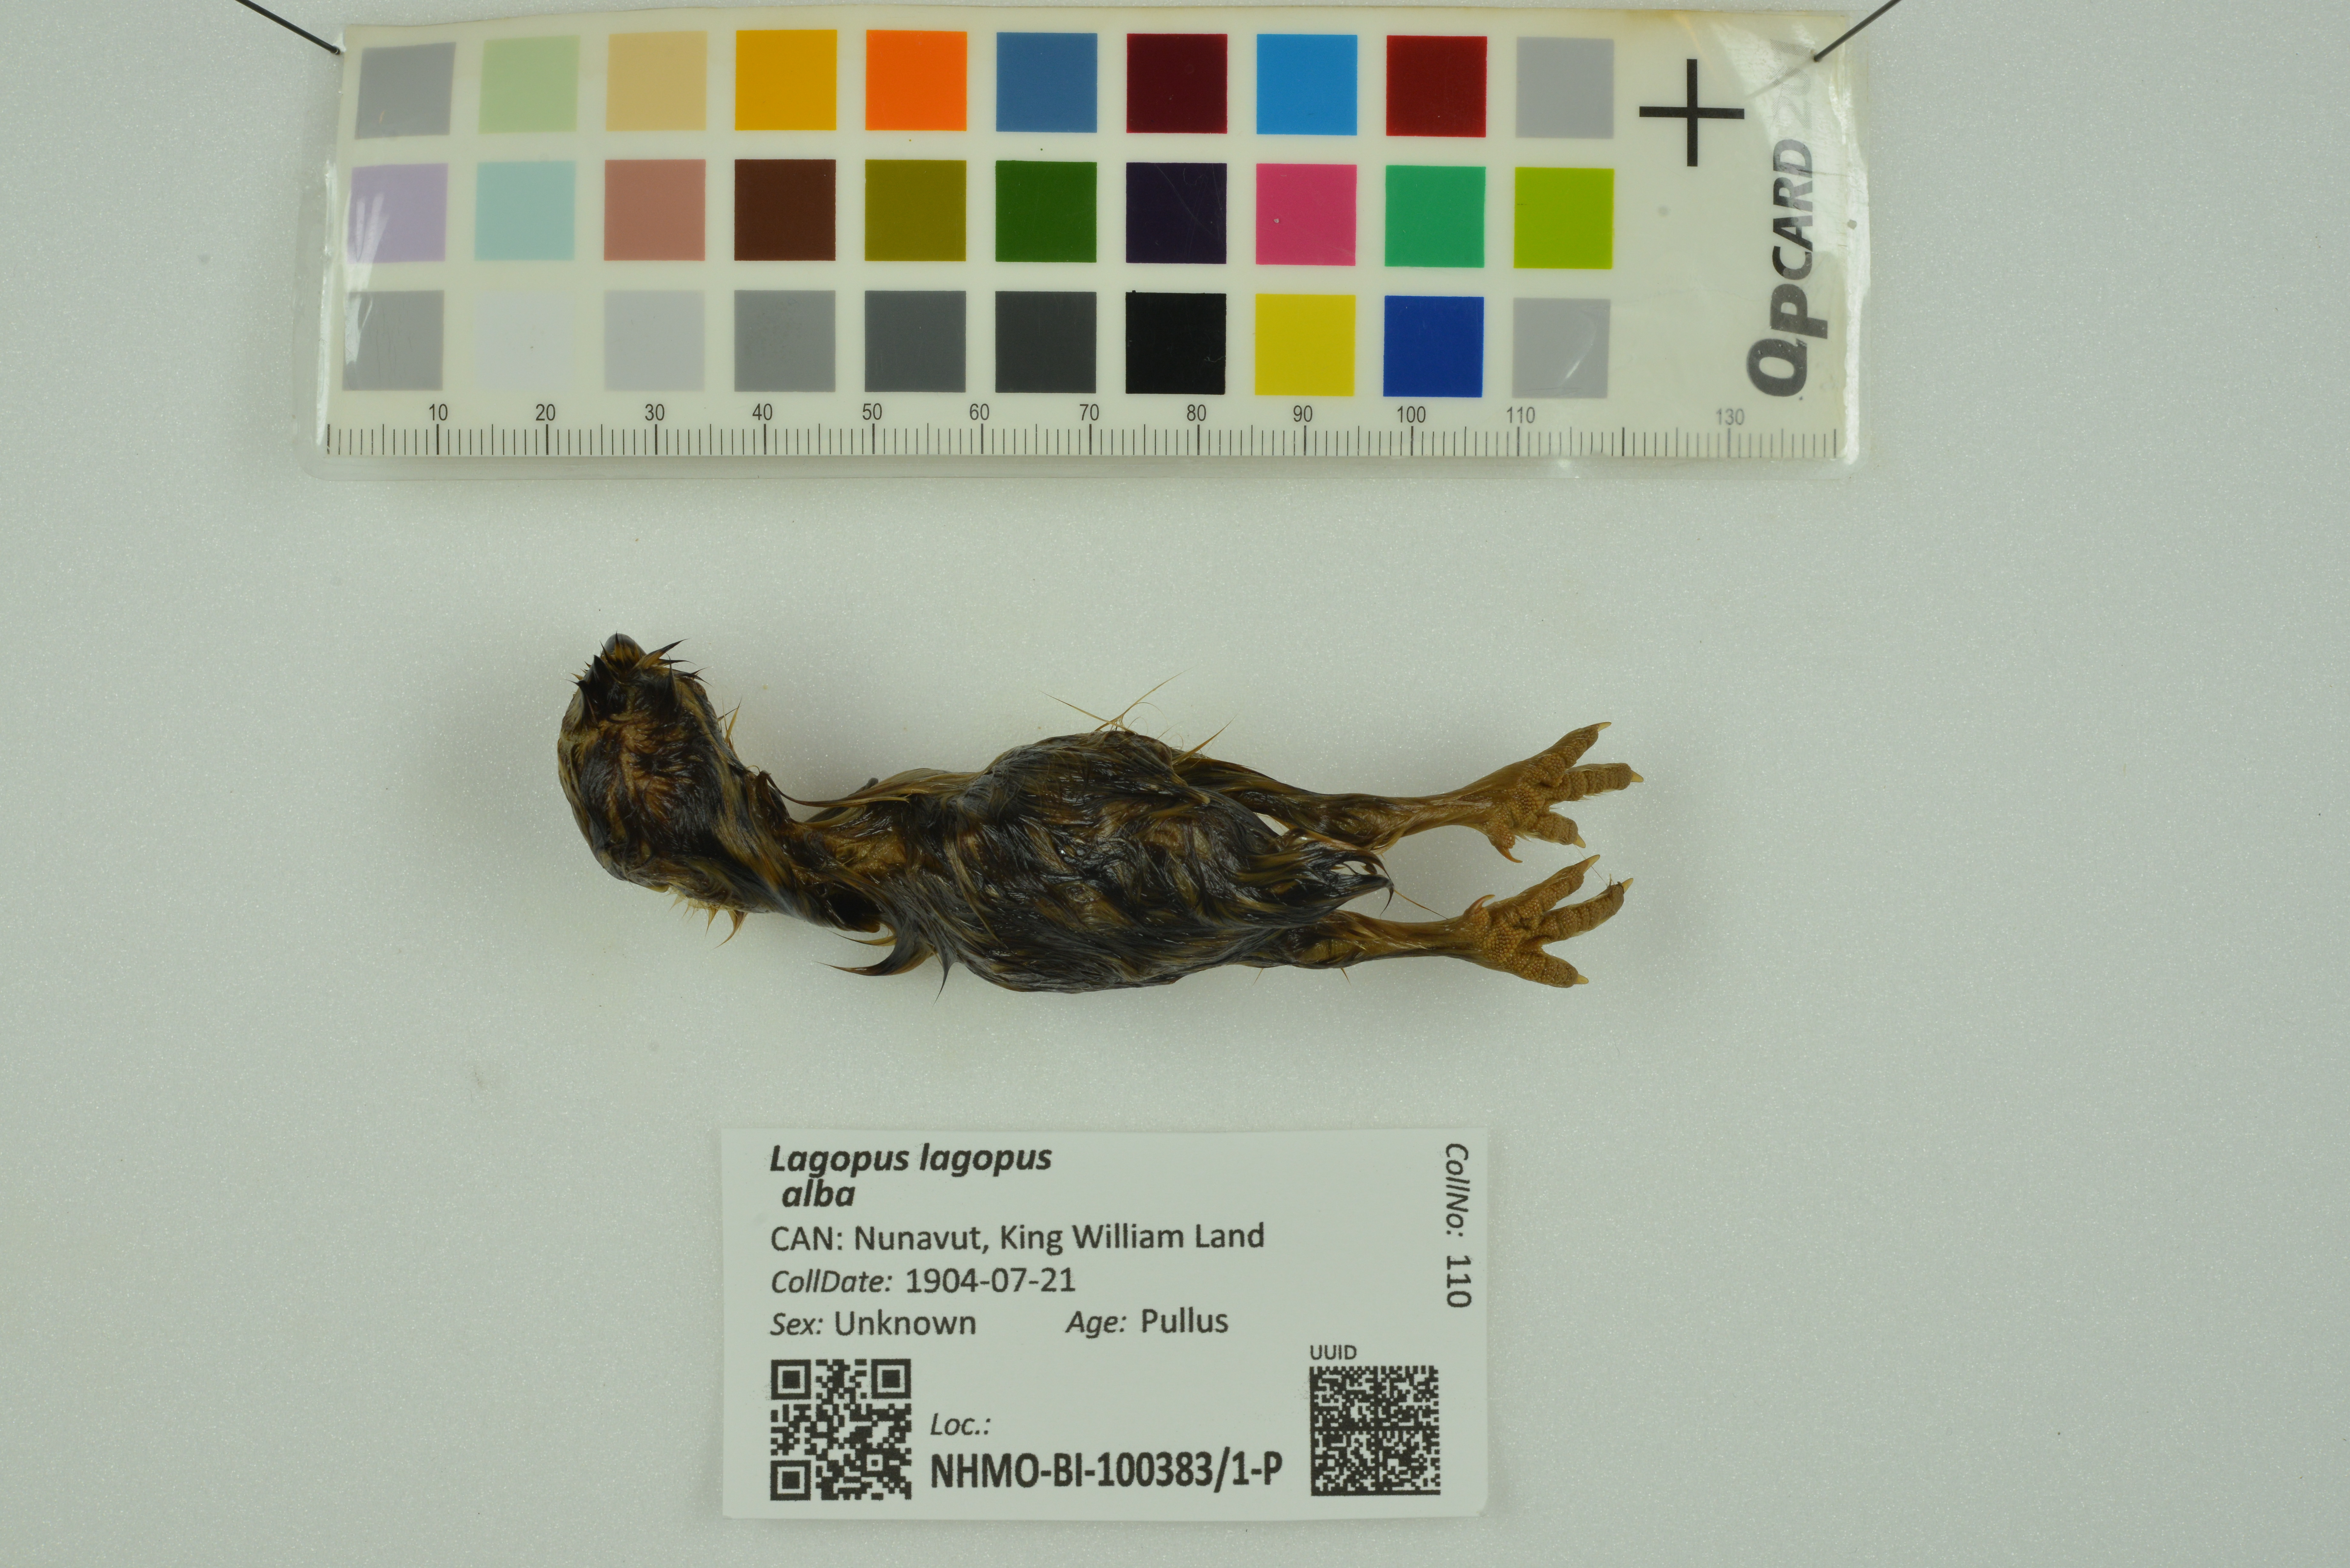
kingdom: Animalia
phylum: Chordata
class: Aves
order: Galliformes
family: Phasianidae
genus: Lagopus
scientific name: Lagopus lagopus
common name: Willow ptarmigan
